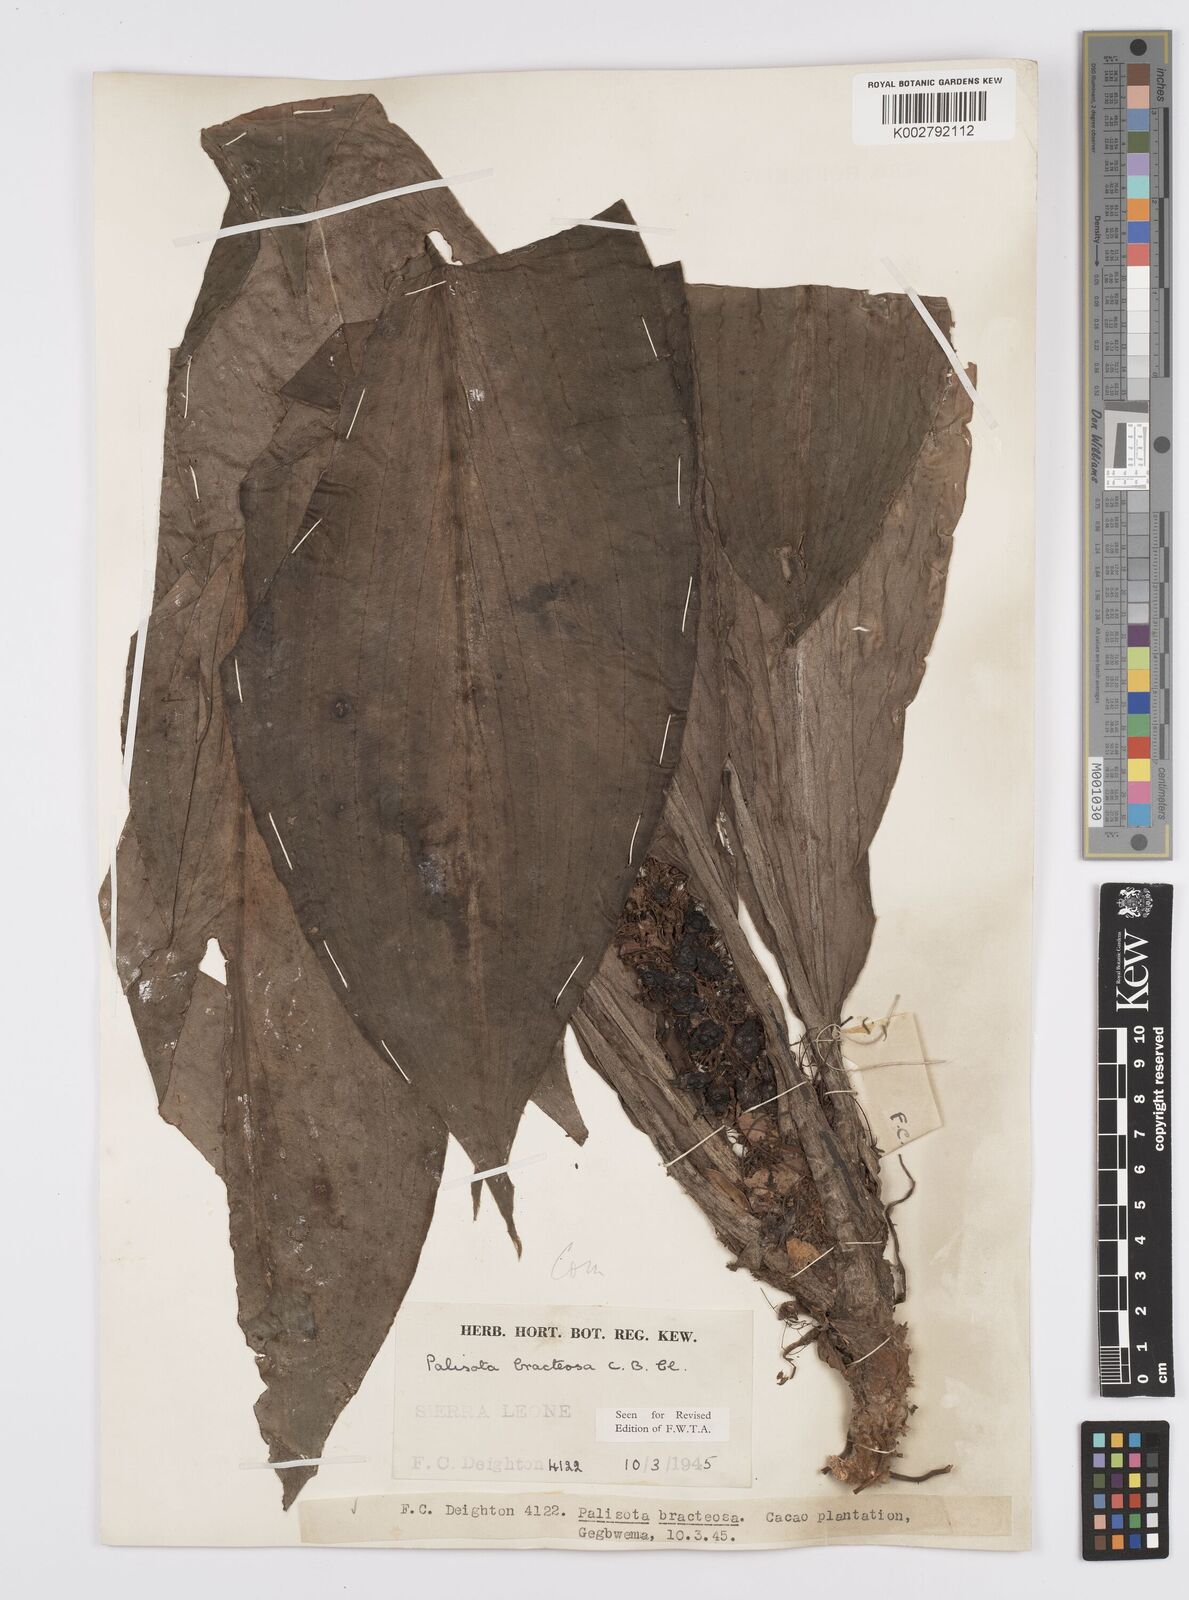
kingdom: Plantae
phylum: Tracheophyta
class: Liliopsida
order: Commelinales
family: Commelinaceae
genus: Palisota
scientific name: Palisota bracteosa
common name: Palisota
